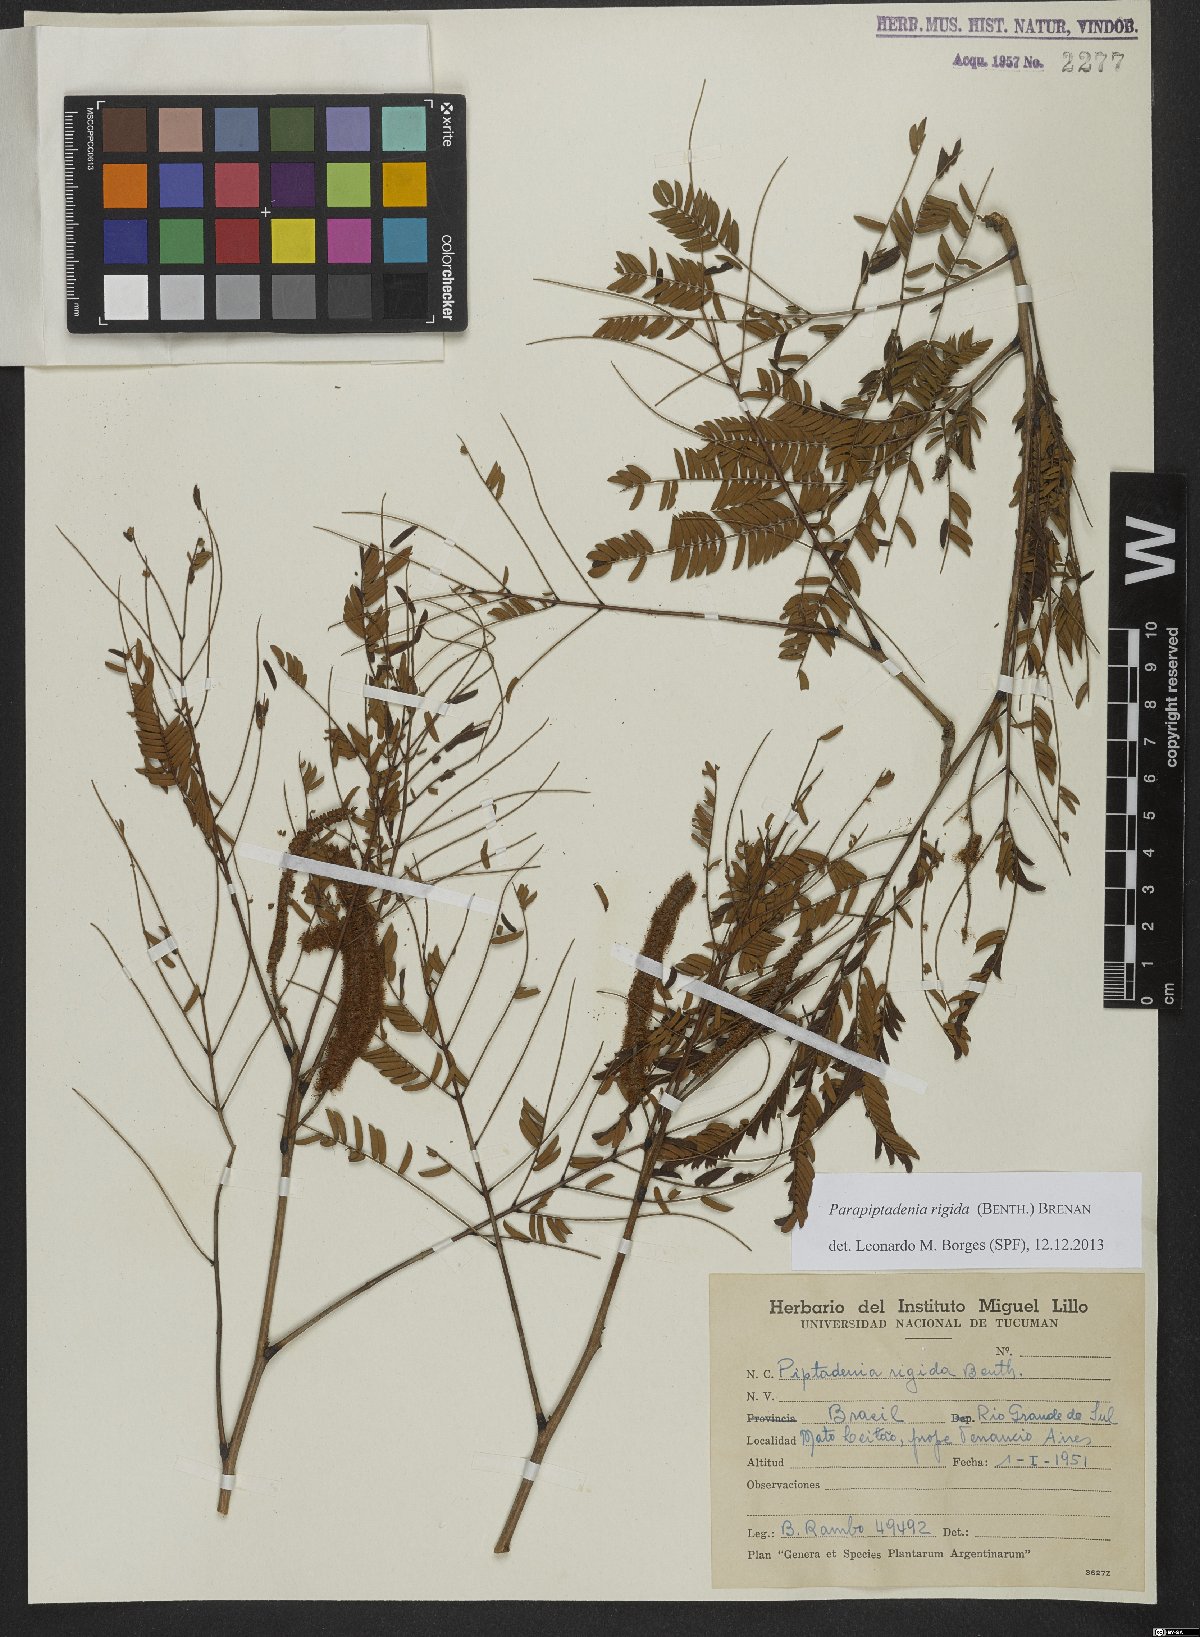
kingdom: Plantae
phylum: Tracheophyta
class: Magnoliopsida
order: Fabales
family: Fabaceae
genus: Parapiptadenia
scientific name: Parapiptadenia rigida
